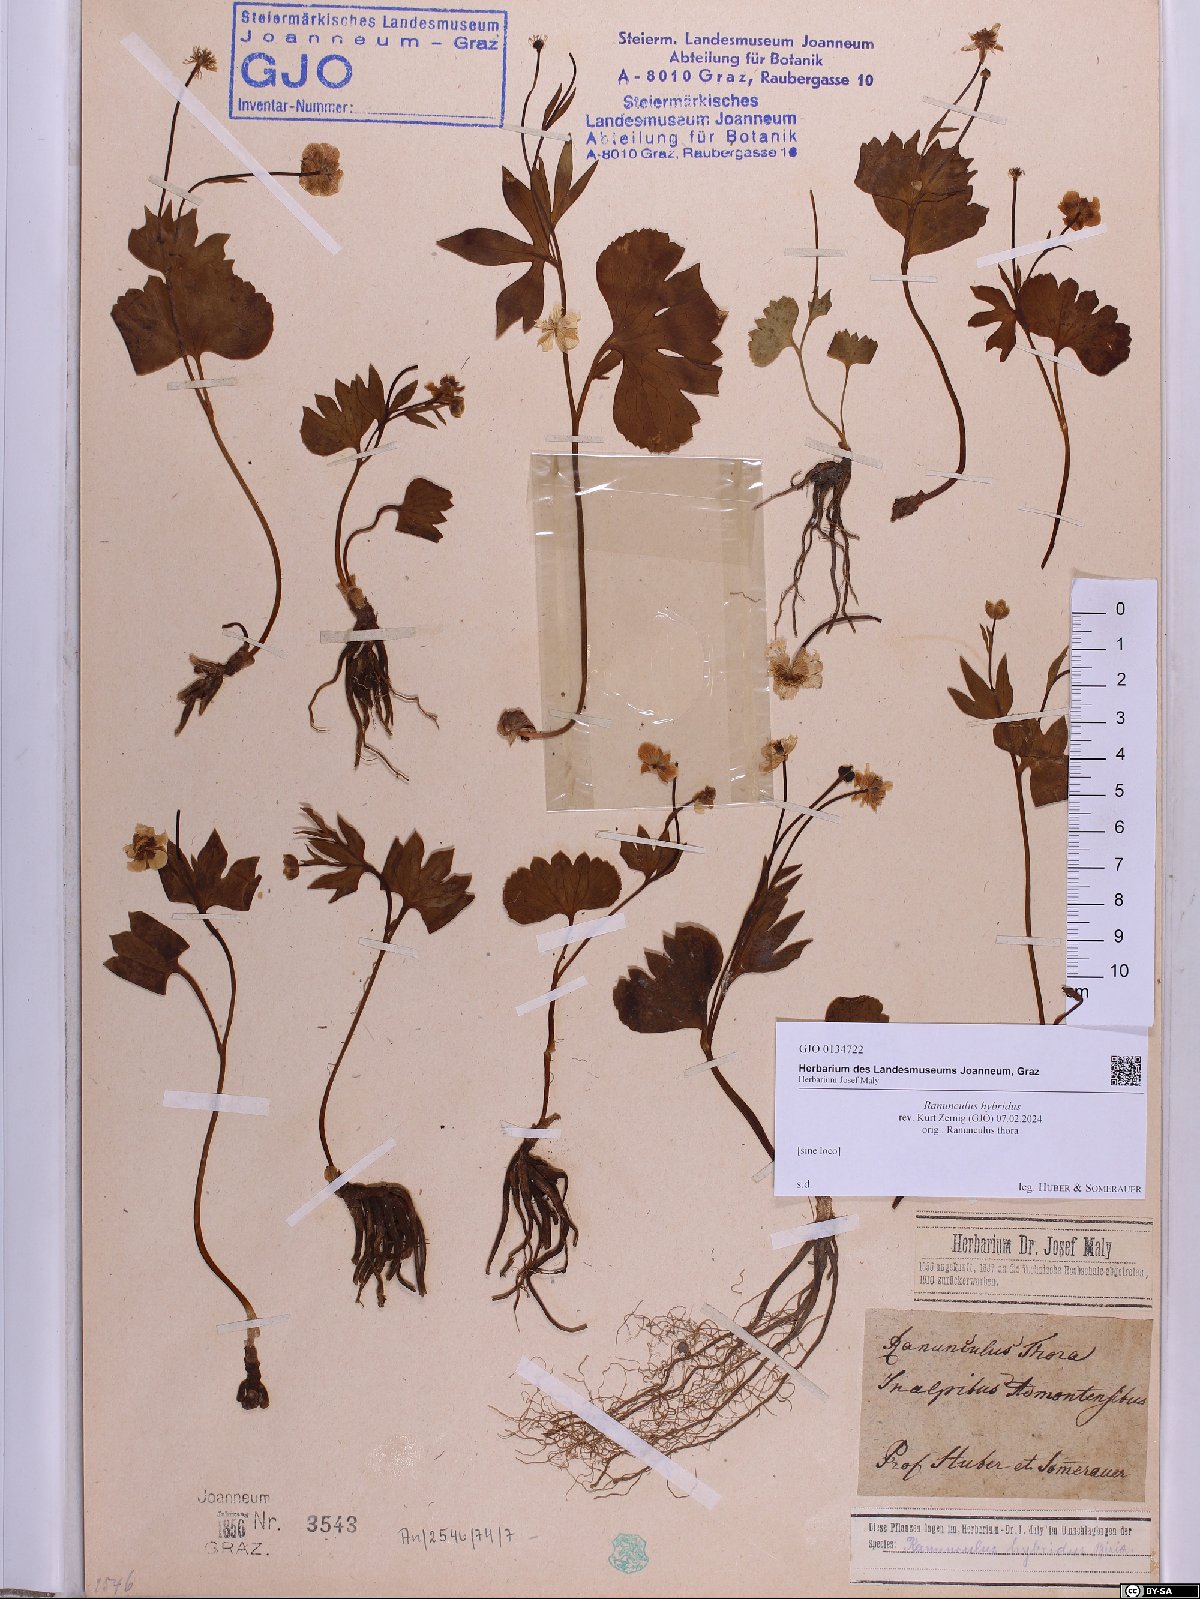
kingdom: Plantae
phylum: Tracheophyta
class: Magnoliopsida
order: Ranunculales
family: Ranunculaceae
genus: Ranunculus
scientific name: Ranunculus hybridus
